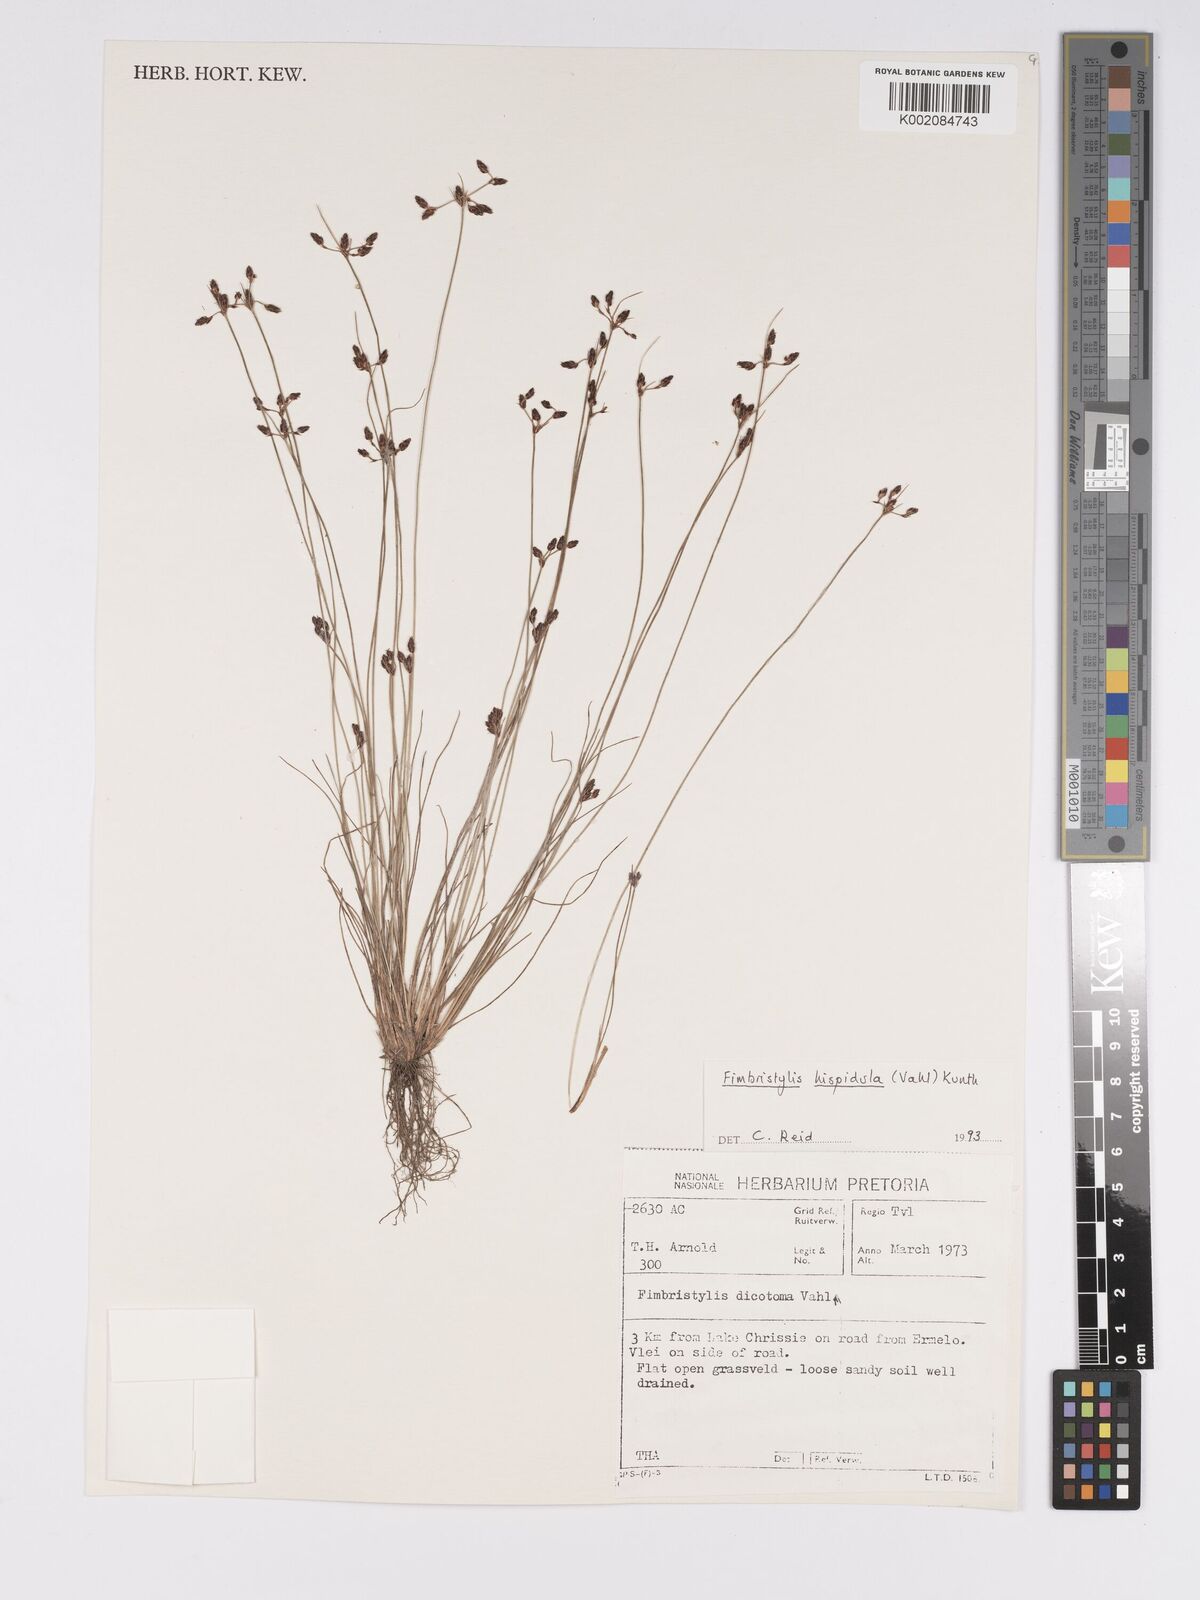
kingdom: Plantae
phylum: Tracheophyta
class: Liliopsida
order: Poales
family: Cyperaceae
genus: Bulbostylis
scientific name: Bulbostylis
